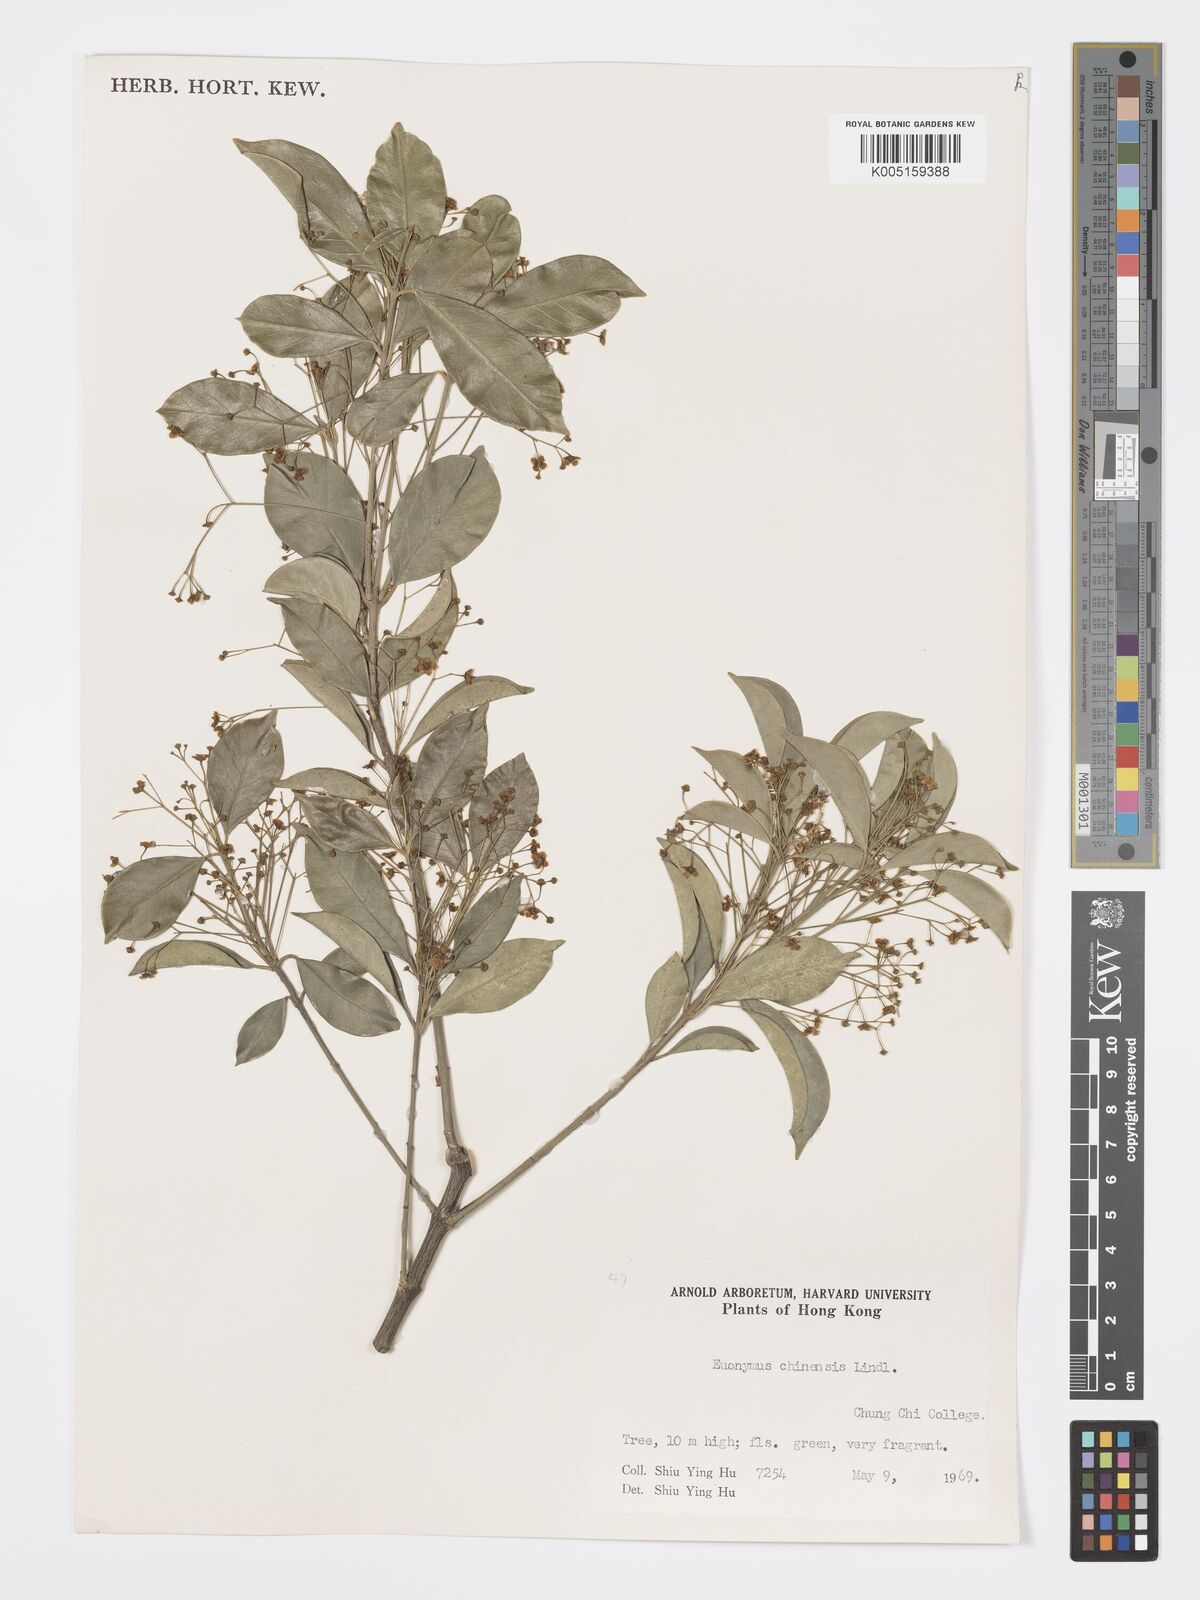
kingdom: Plantae
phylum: Tracheophyta
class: Magnoliopsida
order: Celastrales
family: Celastraceae
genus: Euonymus
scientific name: Euonymus nitidus
